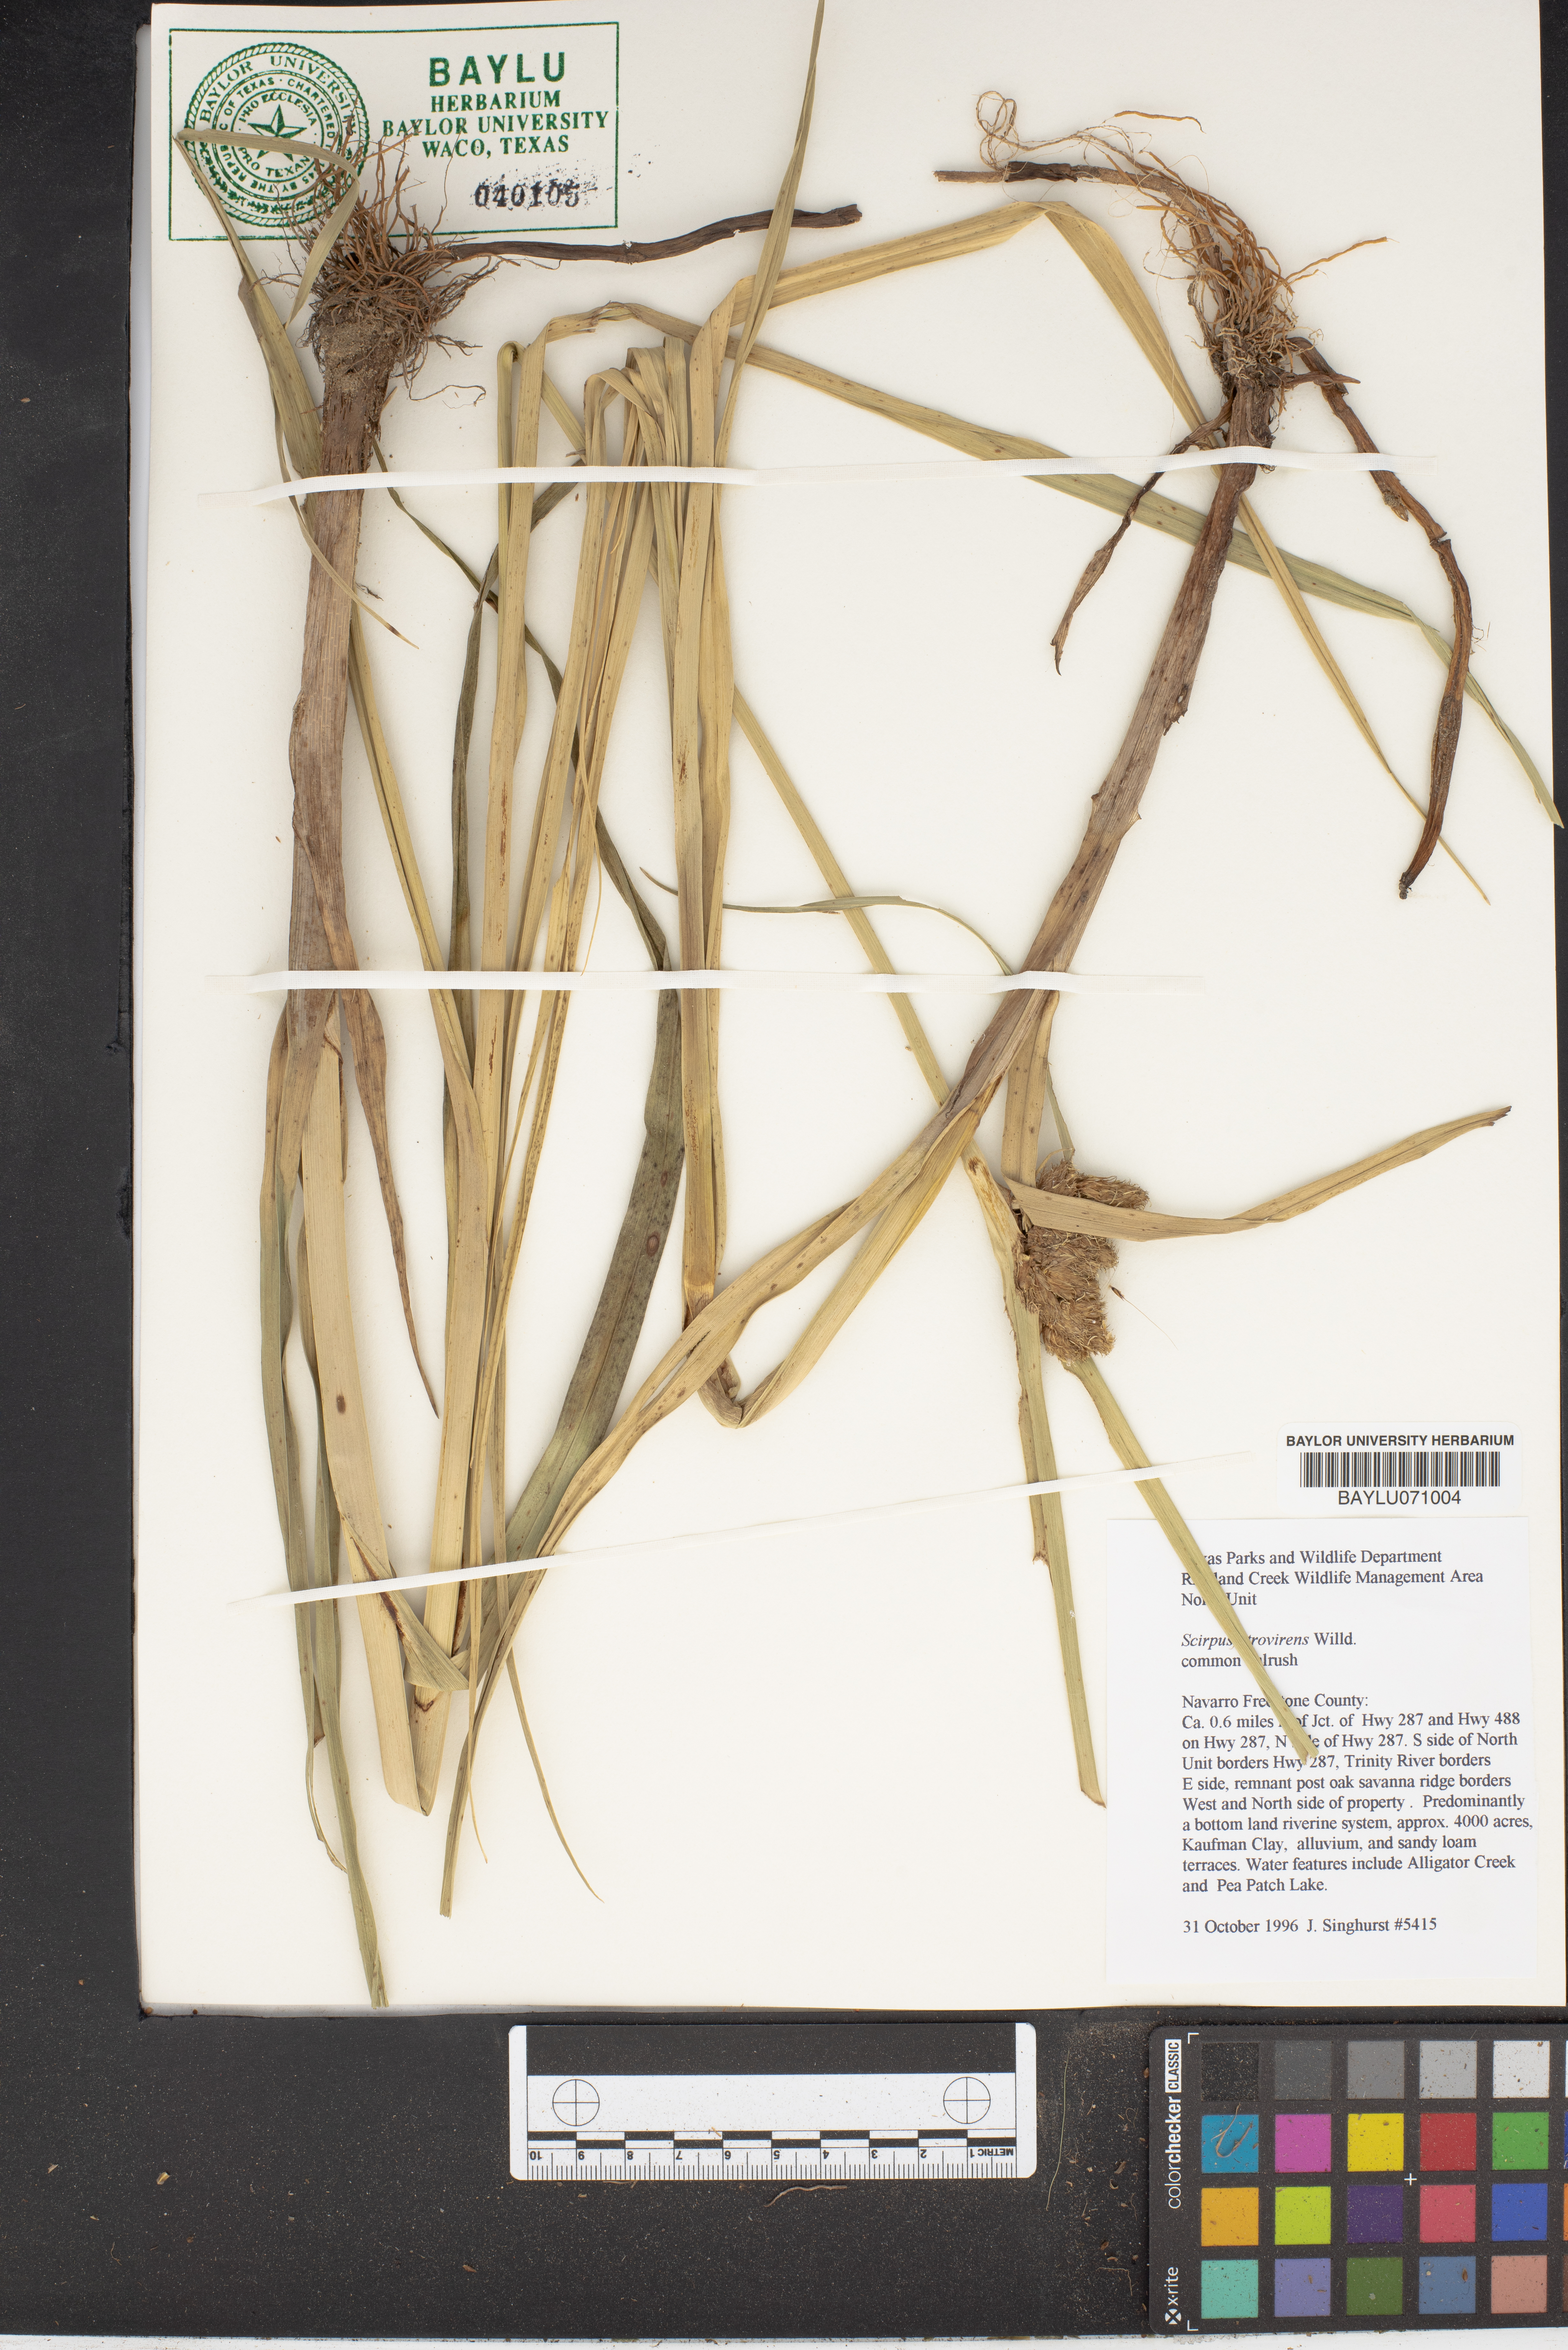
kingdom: Plantae
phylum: Tracheophyta
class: Liliopsida
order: Poales
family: Cyperaceae
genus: Scirpus
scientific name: Scirpus atrovirens
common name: Black bulrush
